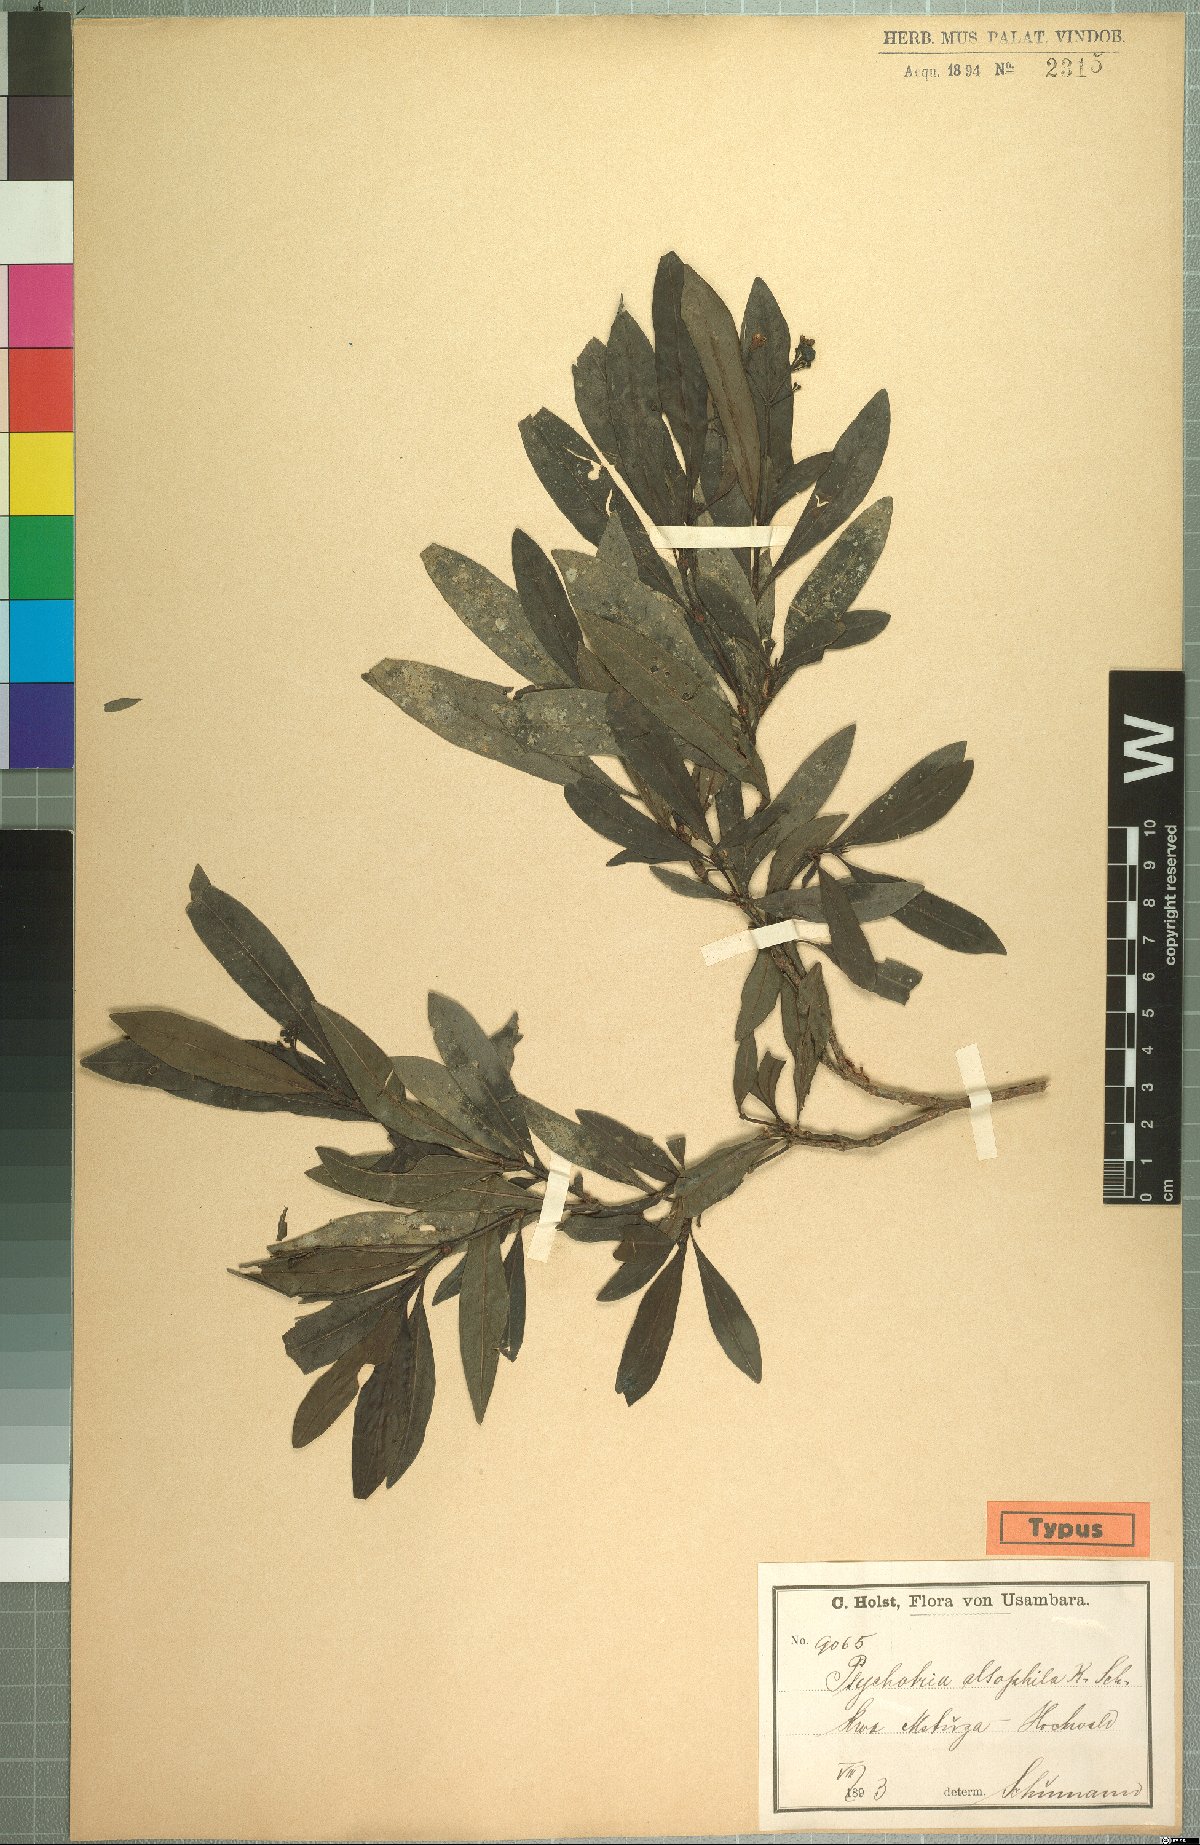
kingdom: Plantae
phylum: Tracheophyta
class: Magnoliopsida
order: Gentianales
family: Rubiaceae
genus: Psychotria
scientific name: Psychotria alsophila
